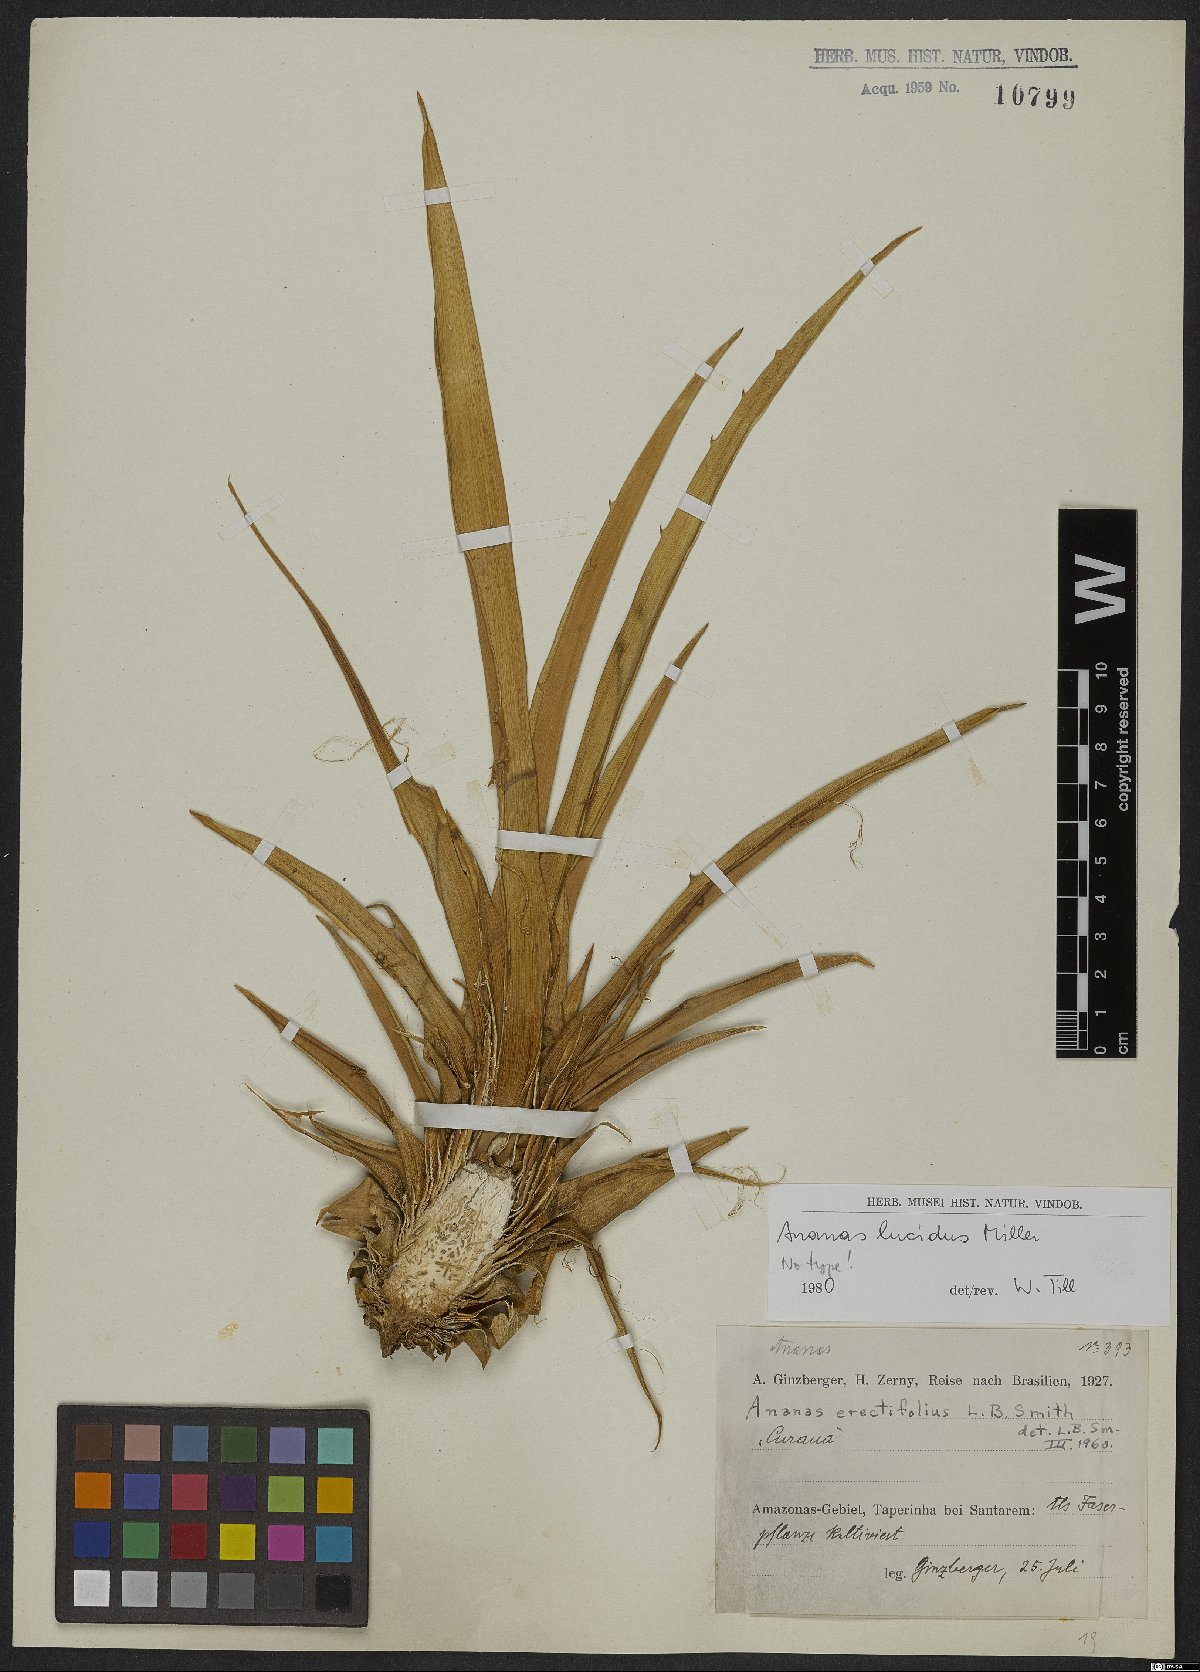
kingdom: Plantae
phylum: Tracheophyta
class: Liliopsida
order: Poales
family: Bromeliaceae
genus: Ananas
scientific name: Ananas comosus
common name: Pineapple
